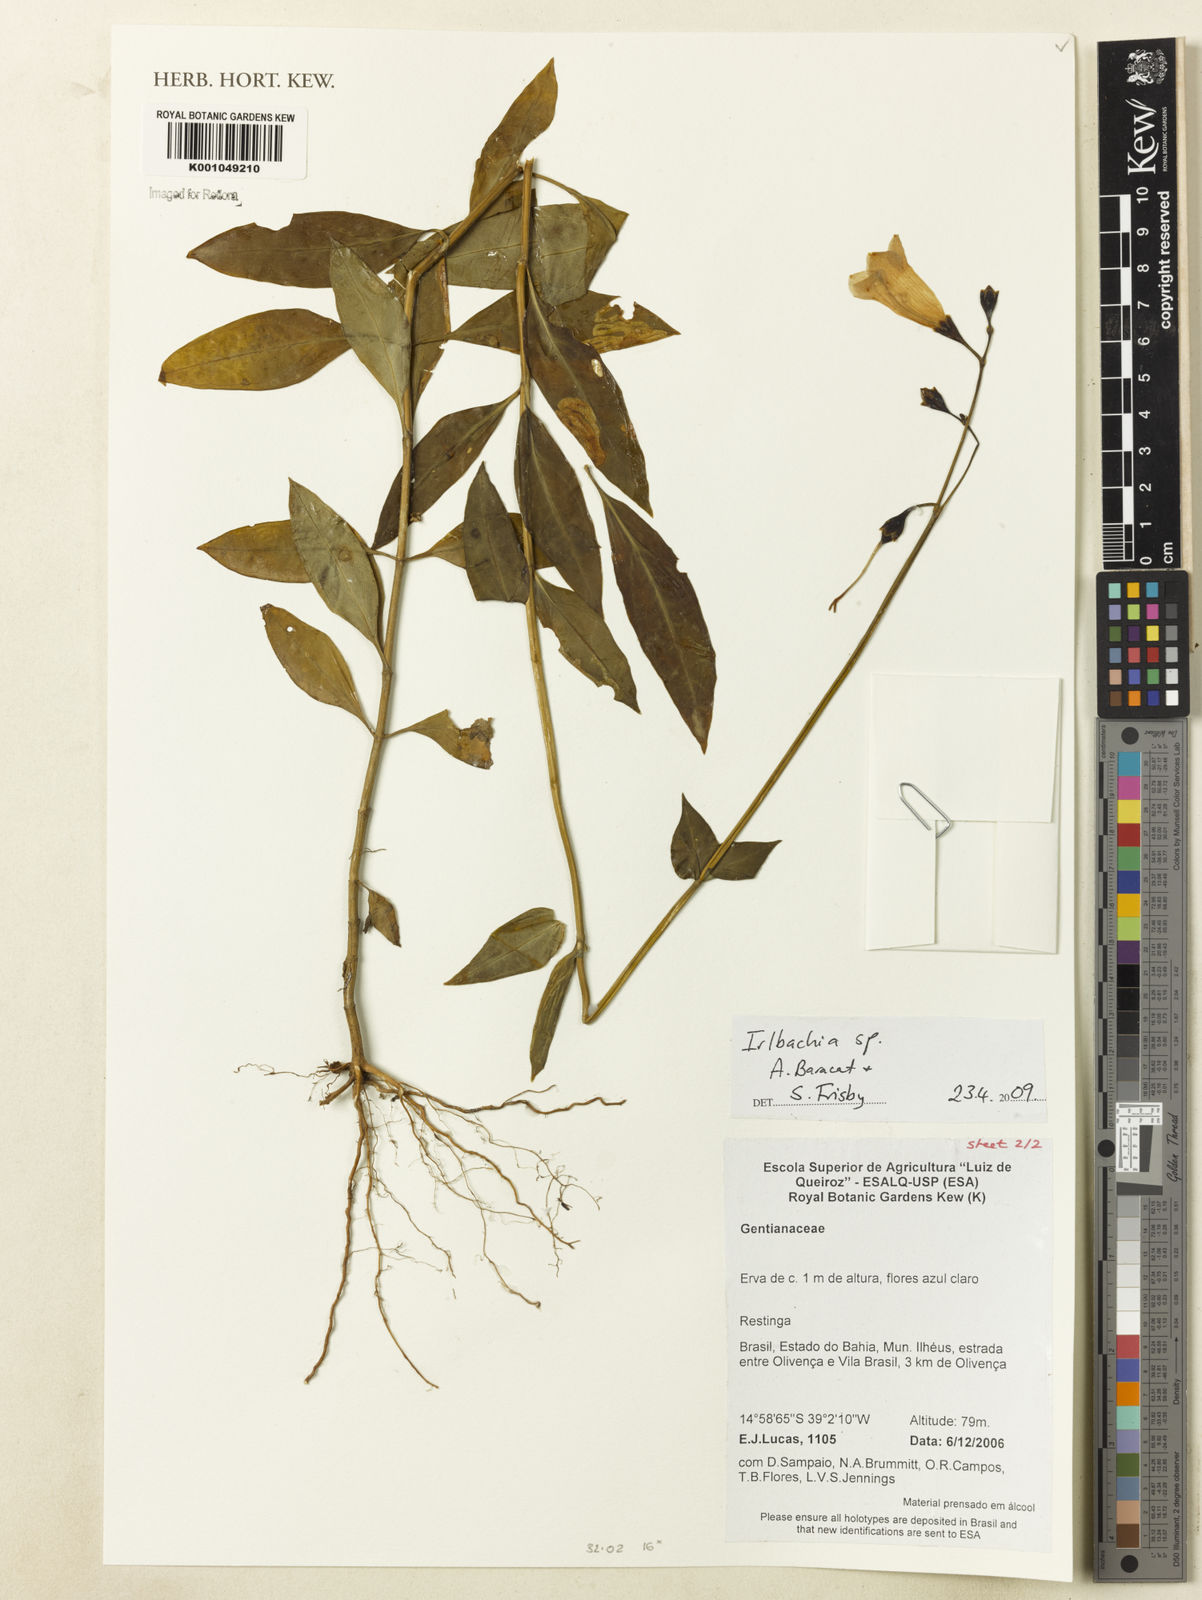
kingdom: Plantae
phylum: Tracheophyta
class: Magnoliopsida
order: Gentianales
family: Gentianaceae
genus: Irlbachia
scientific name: Irlbachia
